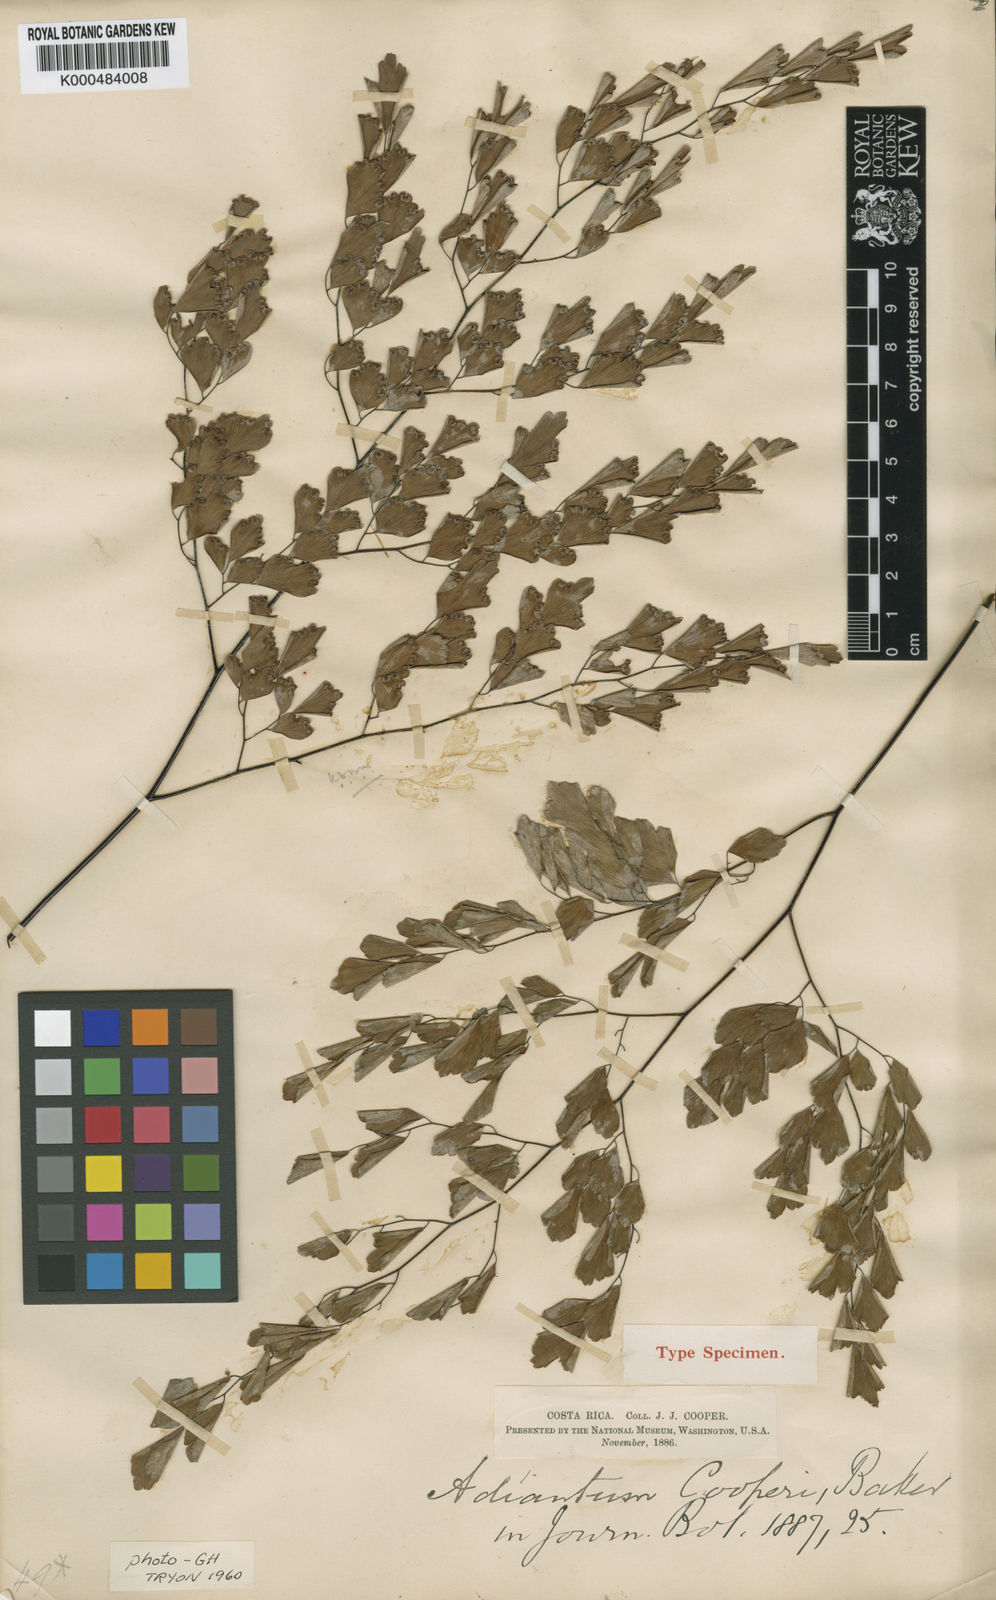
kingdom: Plantae
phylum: Tracheophyta
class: Polypodiopsida
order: Polypodiales
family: Pteridaceae
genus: Adiantum
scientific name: Adiantum andicola
